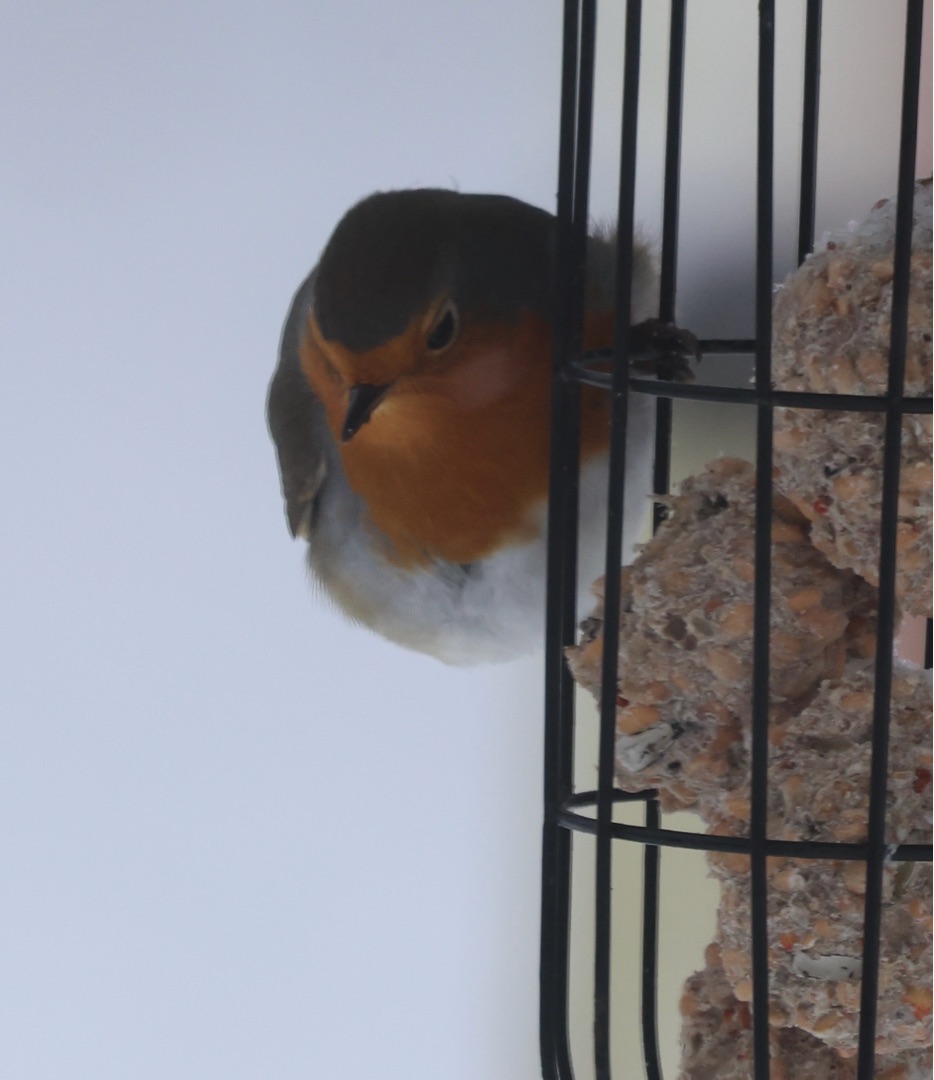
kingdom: Animalia
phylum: Chordata
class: Aves
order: Passeriformes
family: Muscicapidae
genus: Erithacus
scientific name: Erithacus rubecula
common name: Rødhals/rødkælk
